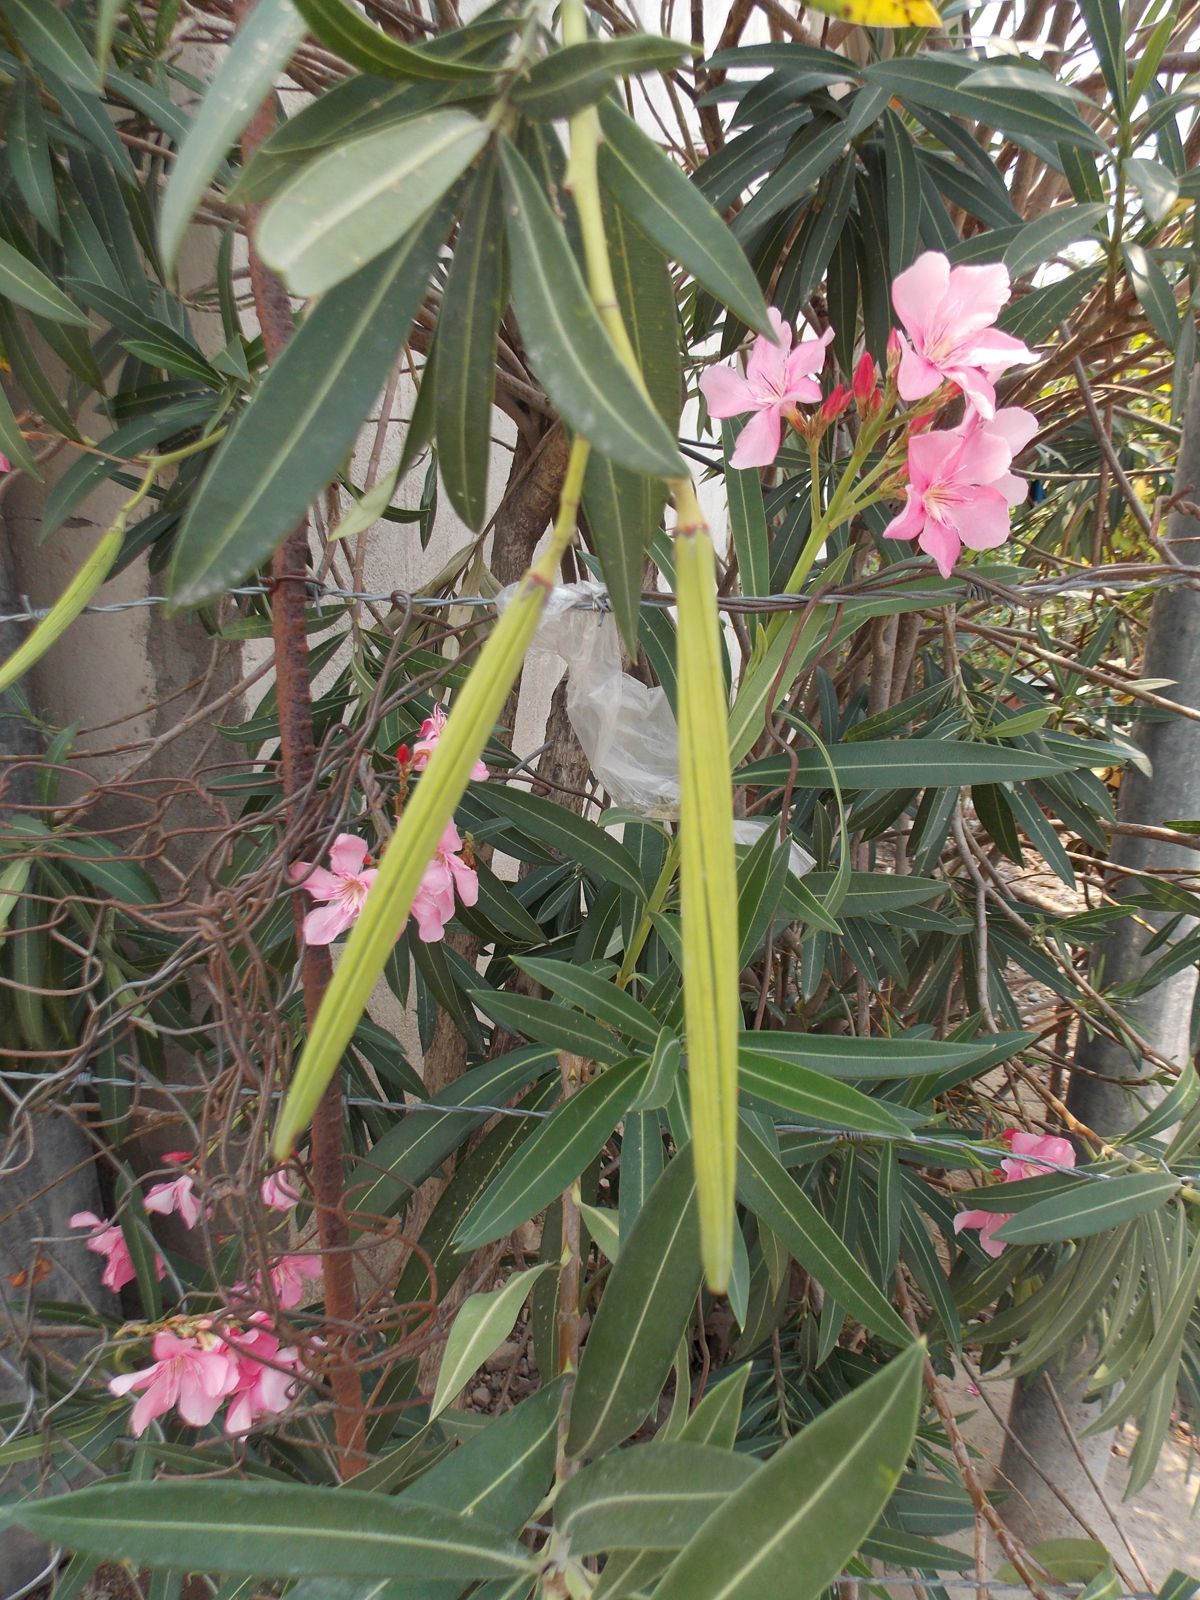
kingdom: Plantae
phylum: Tracheophyta
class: Magnoliopsida
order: Gentianales
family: Apocynaceae
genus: Nerium
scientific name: Nerium oleander
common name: Oleander
